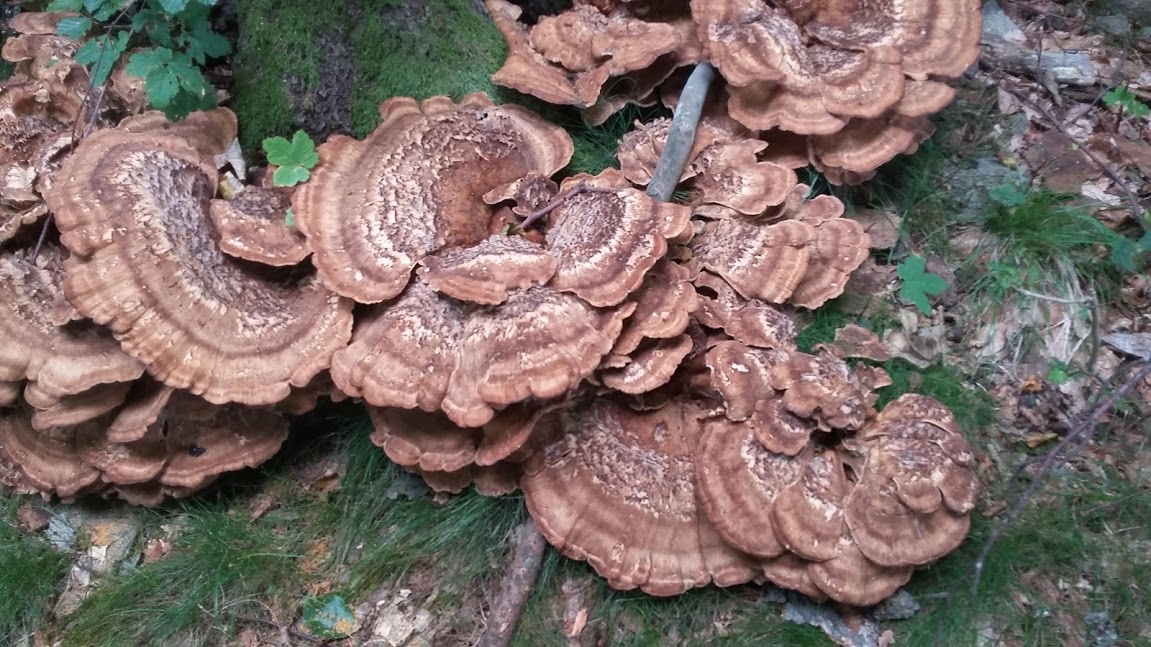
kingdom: Fungi
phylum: Basidiomycota
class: Agaricomycetes
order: Polyporales
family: Meripilaceae
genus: Meripilus
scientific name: Meripilus giganteus
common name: kæmpeporesvamp
